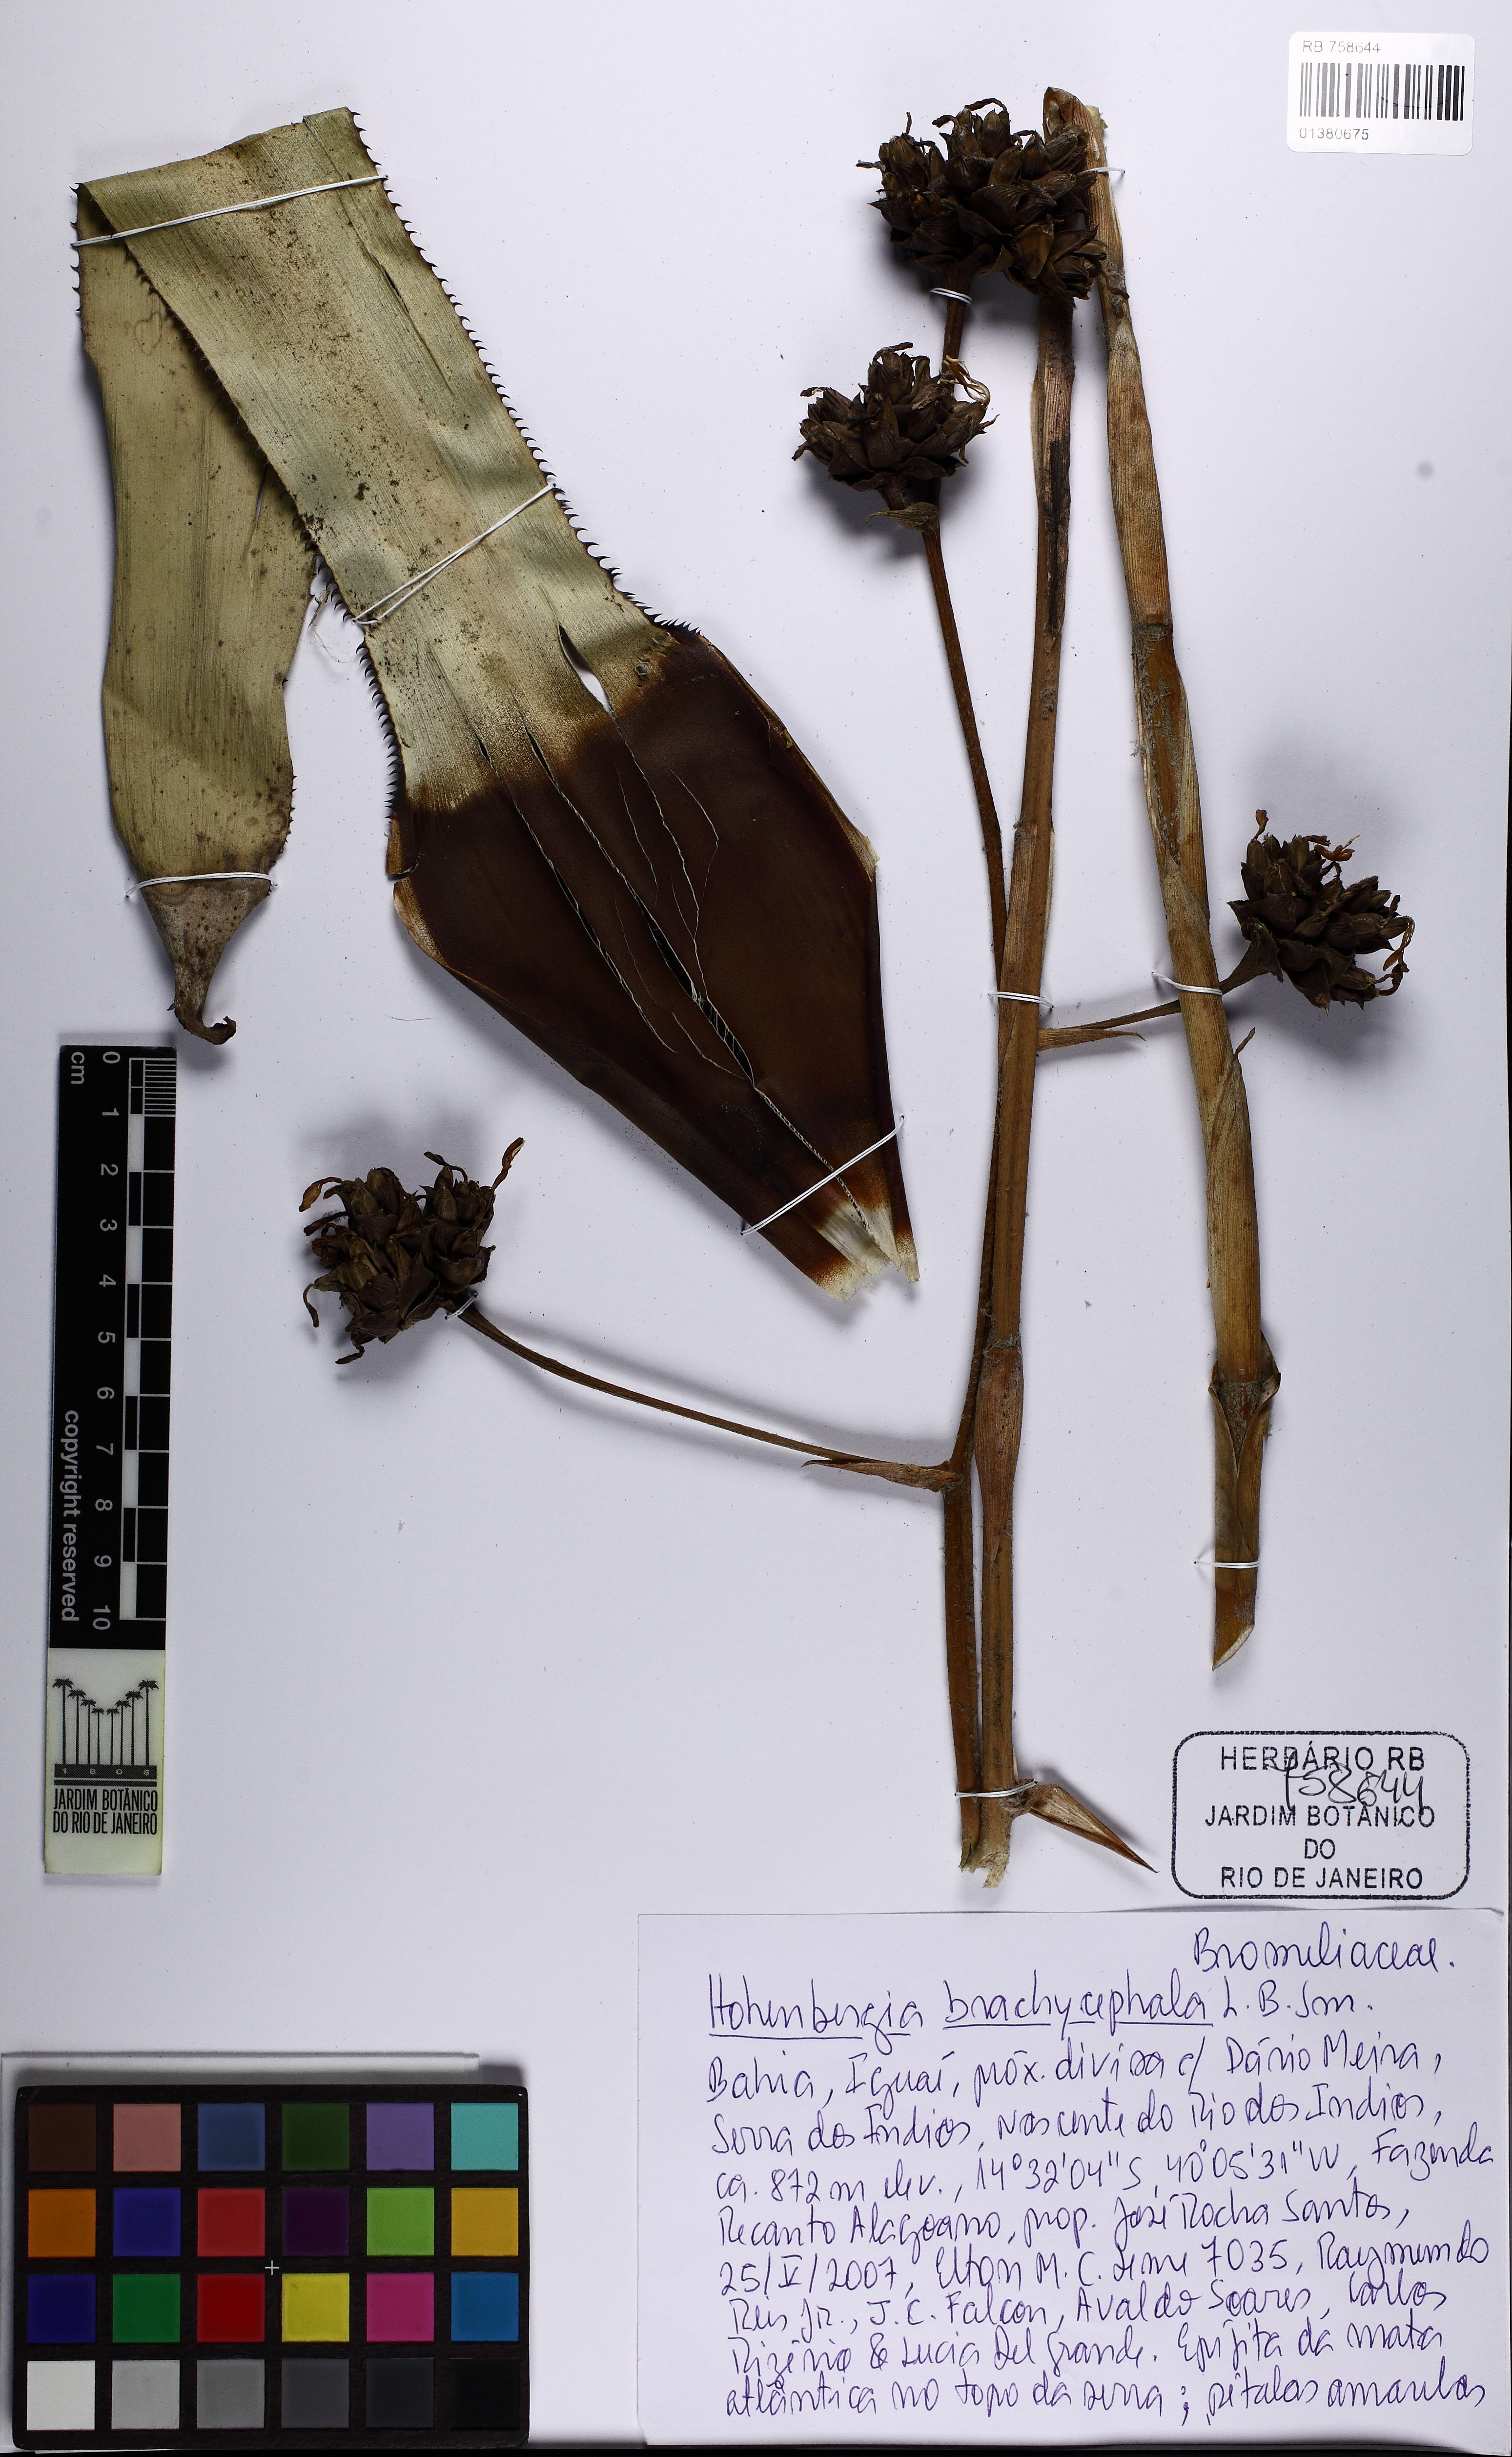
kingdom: Plantae
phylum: Tracheophyta
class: Liliopsida
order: Poales
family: Bromeliaceae
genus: Hohenbergia
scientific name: Hohenbergia brachycephala
